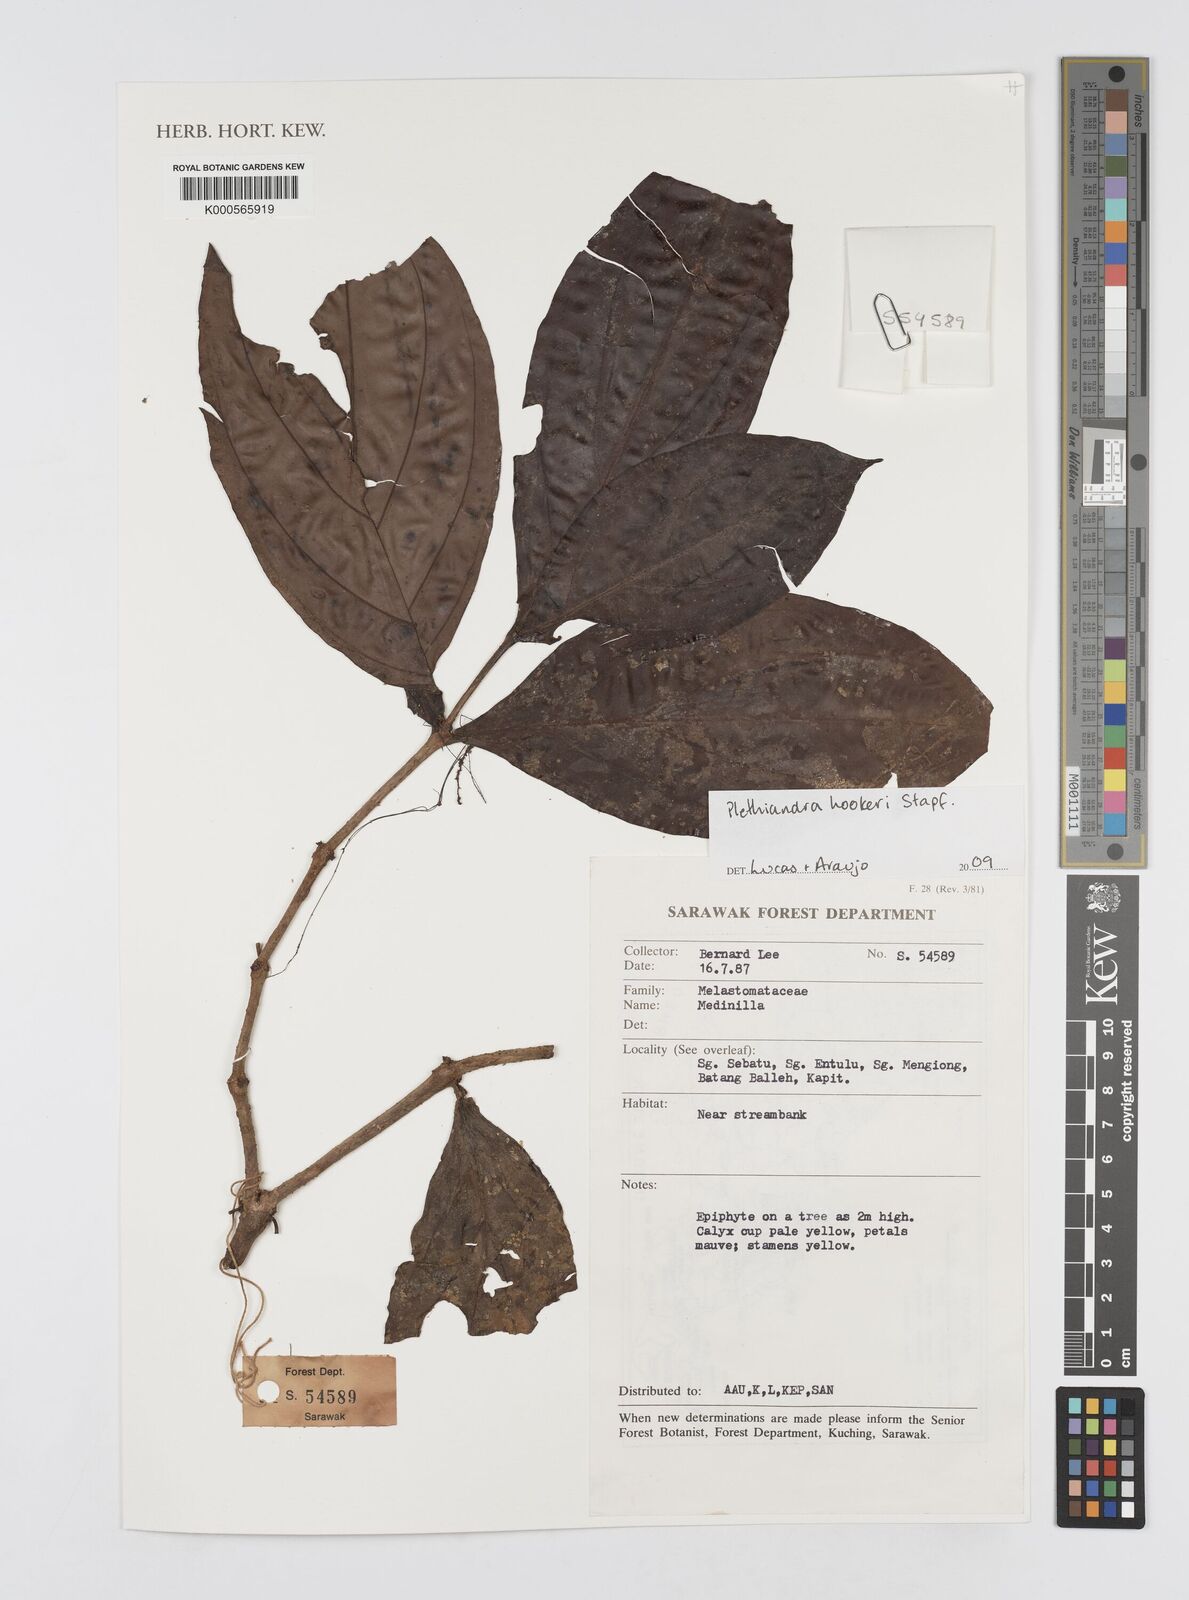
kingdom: Plantae
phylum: Tracheophyta
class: Magnoliopsida
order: Myrtales
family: Melastomataceae
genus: Plethiandra
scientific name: Plethiandra hookeri
